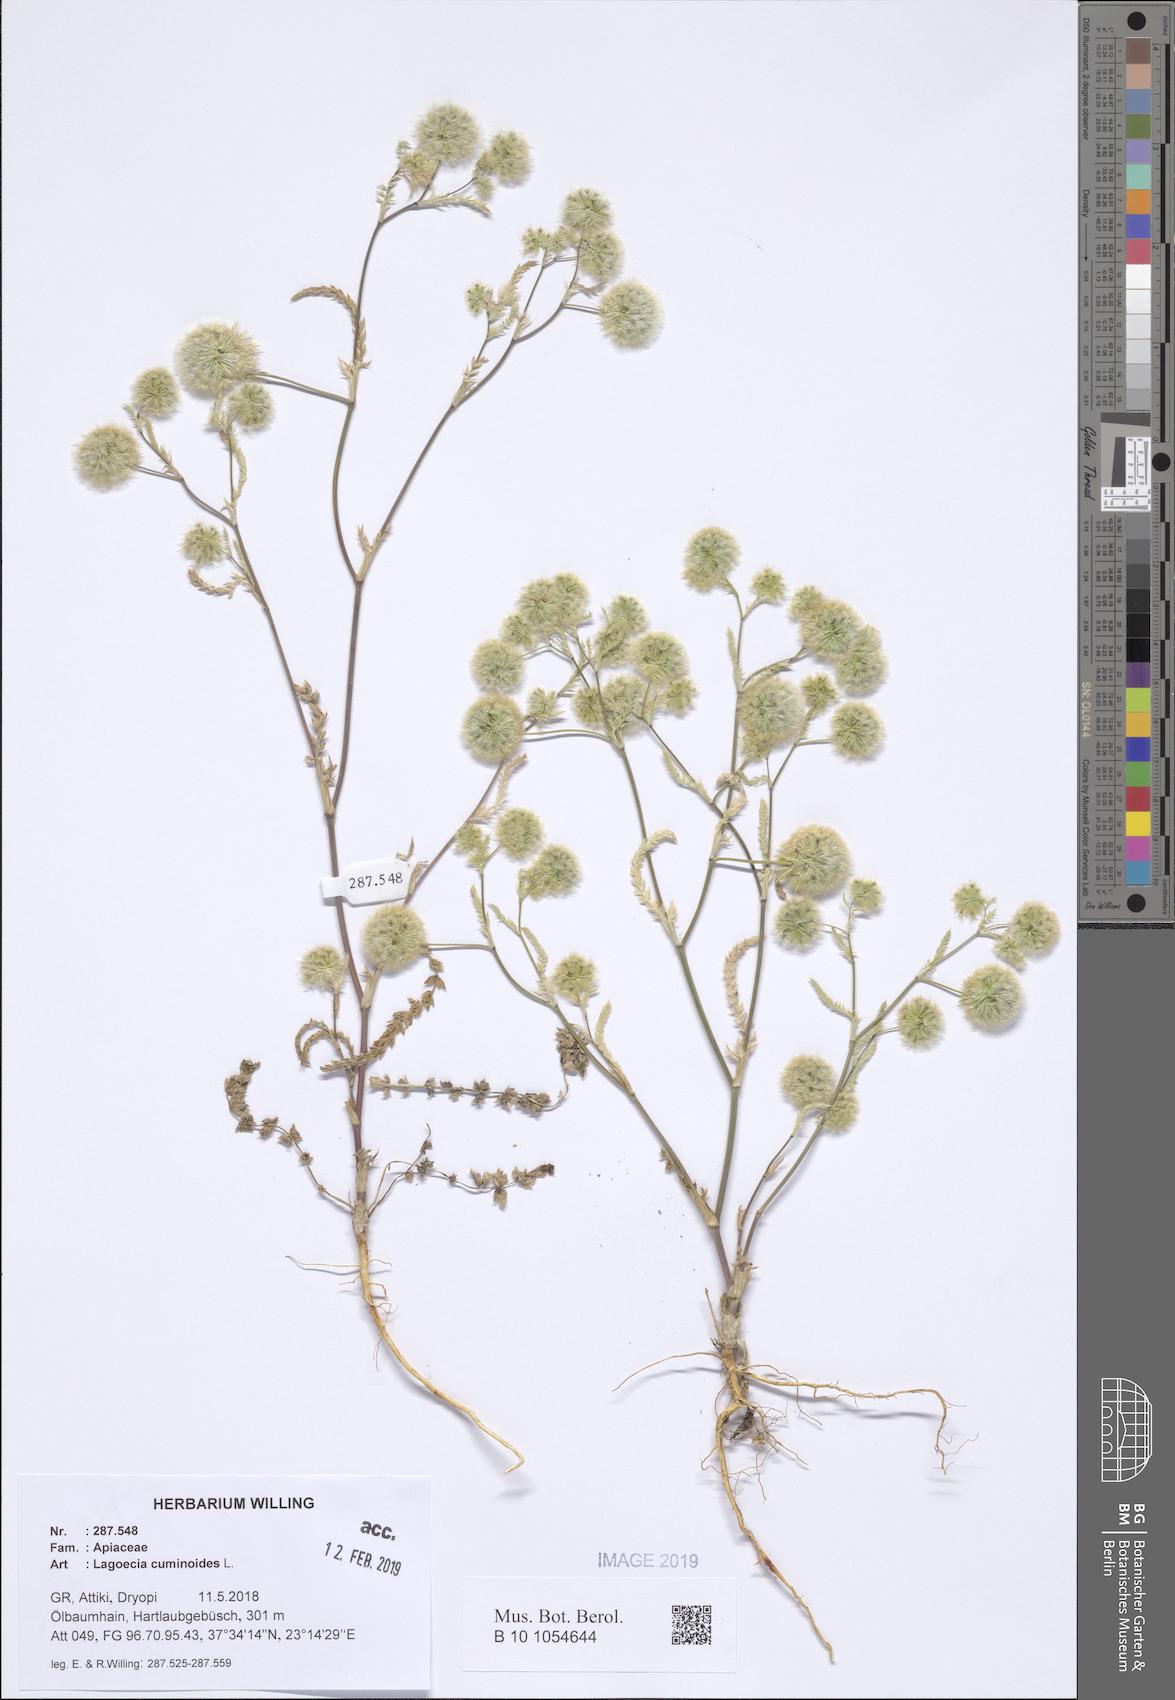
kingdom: Plantae
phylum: Tracheophyta
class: Magnoliopsida
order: Apiales
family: Apiaceae
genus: Lagoecia
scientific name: Lagoecia cuminoides
